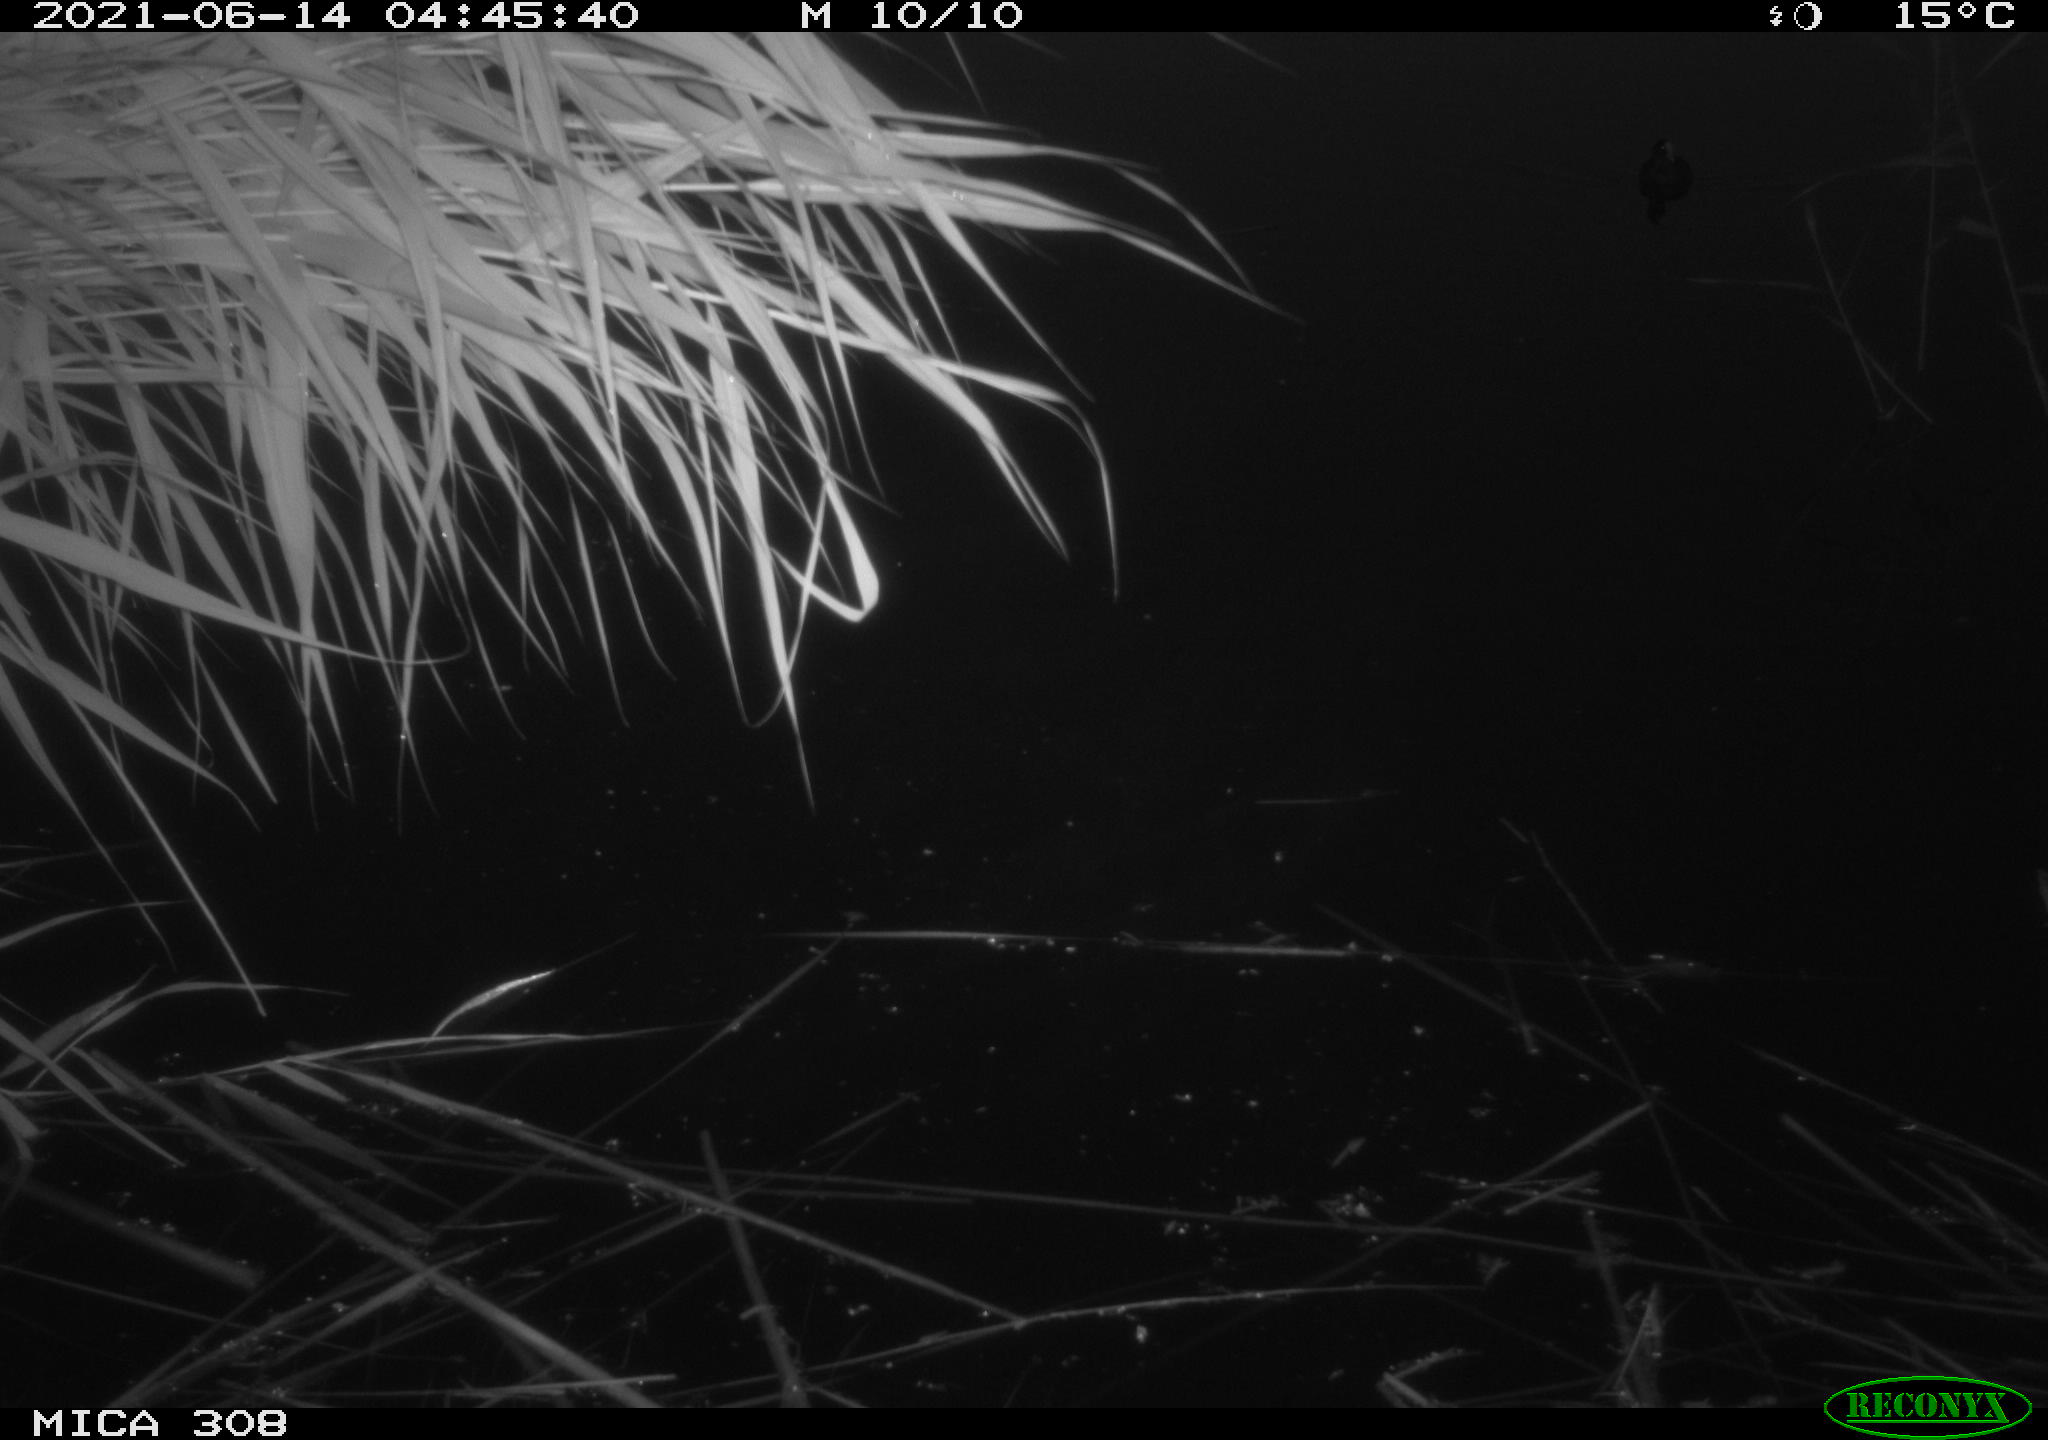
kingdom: Animalia
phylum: Chordata
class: Aves
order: Anseriformes
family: Anatidae
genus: Anas
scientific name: Anas platyrhynchos
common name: Mallard
